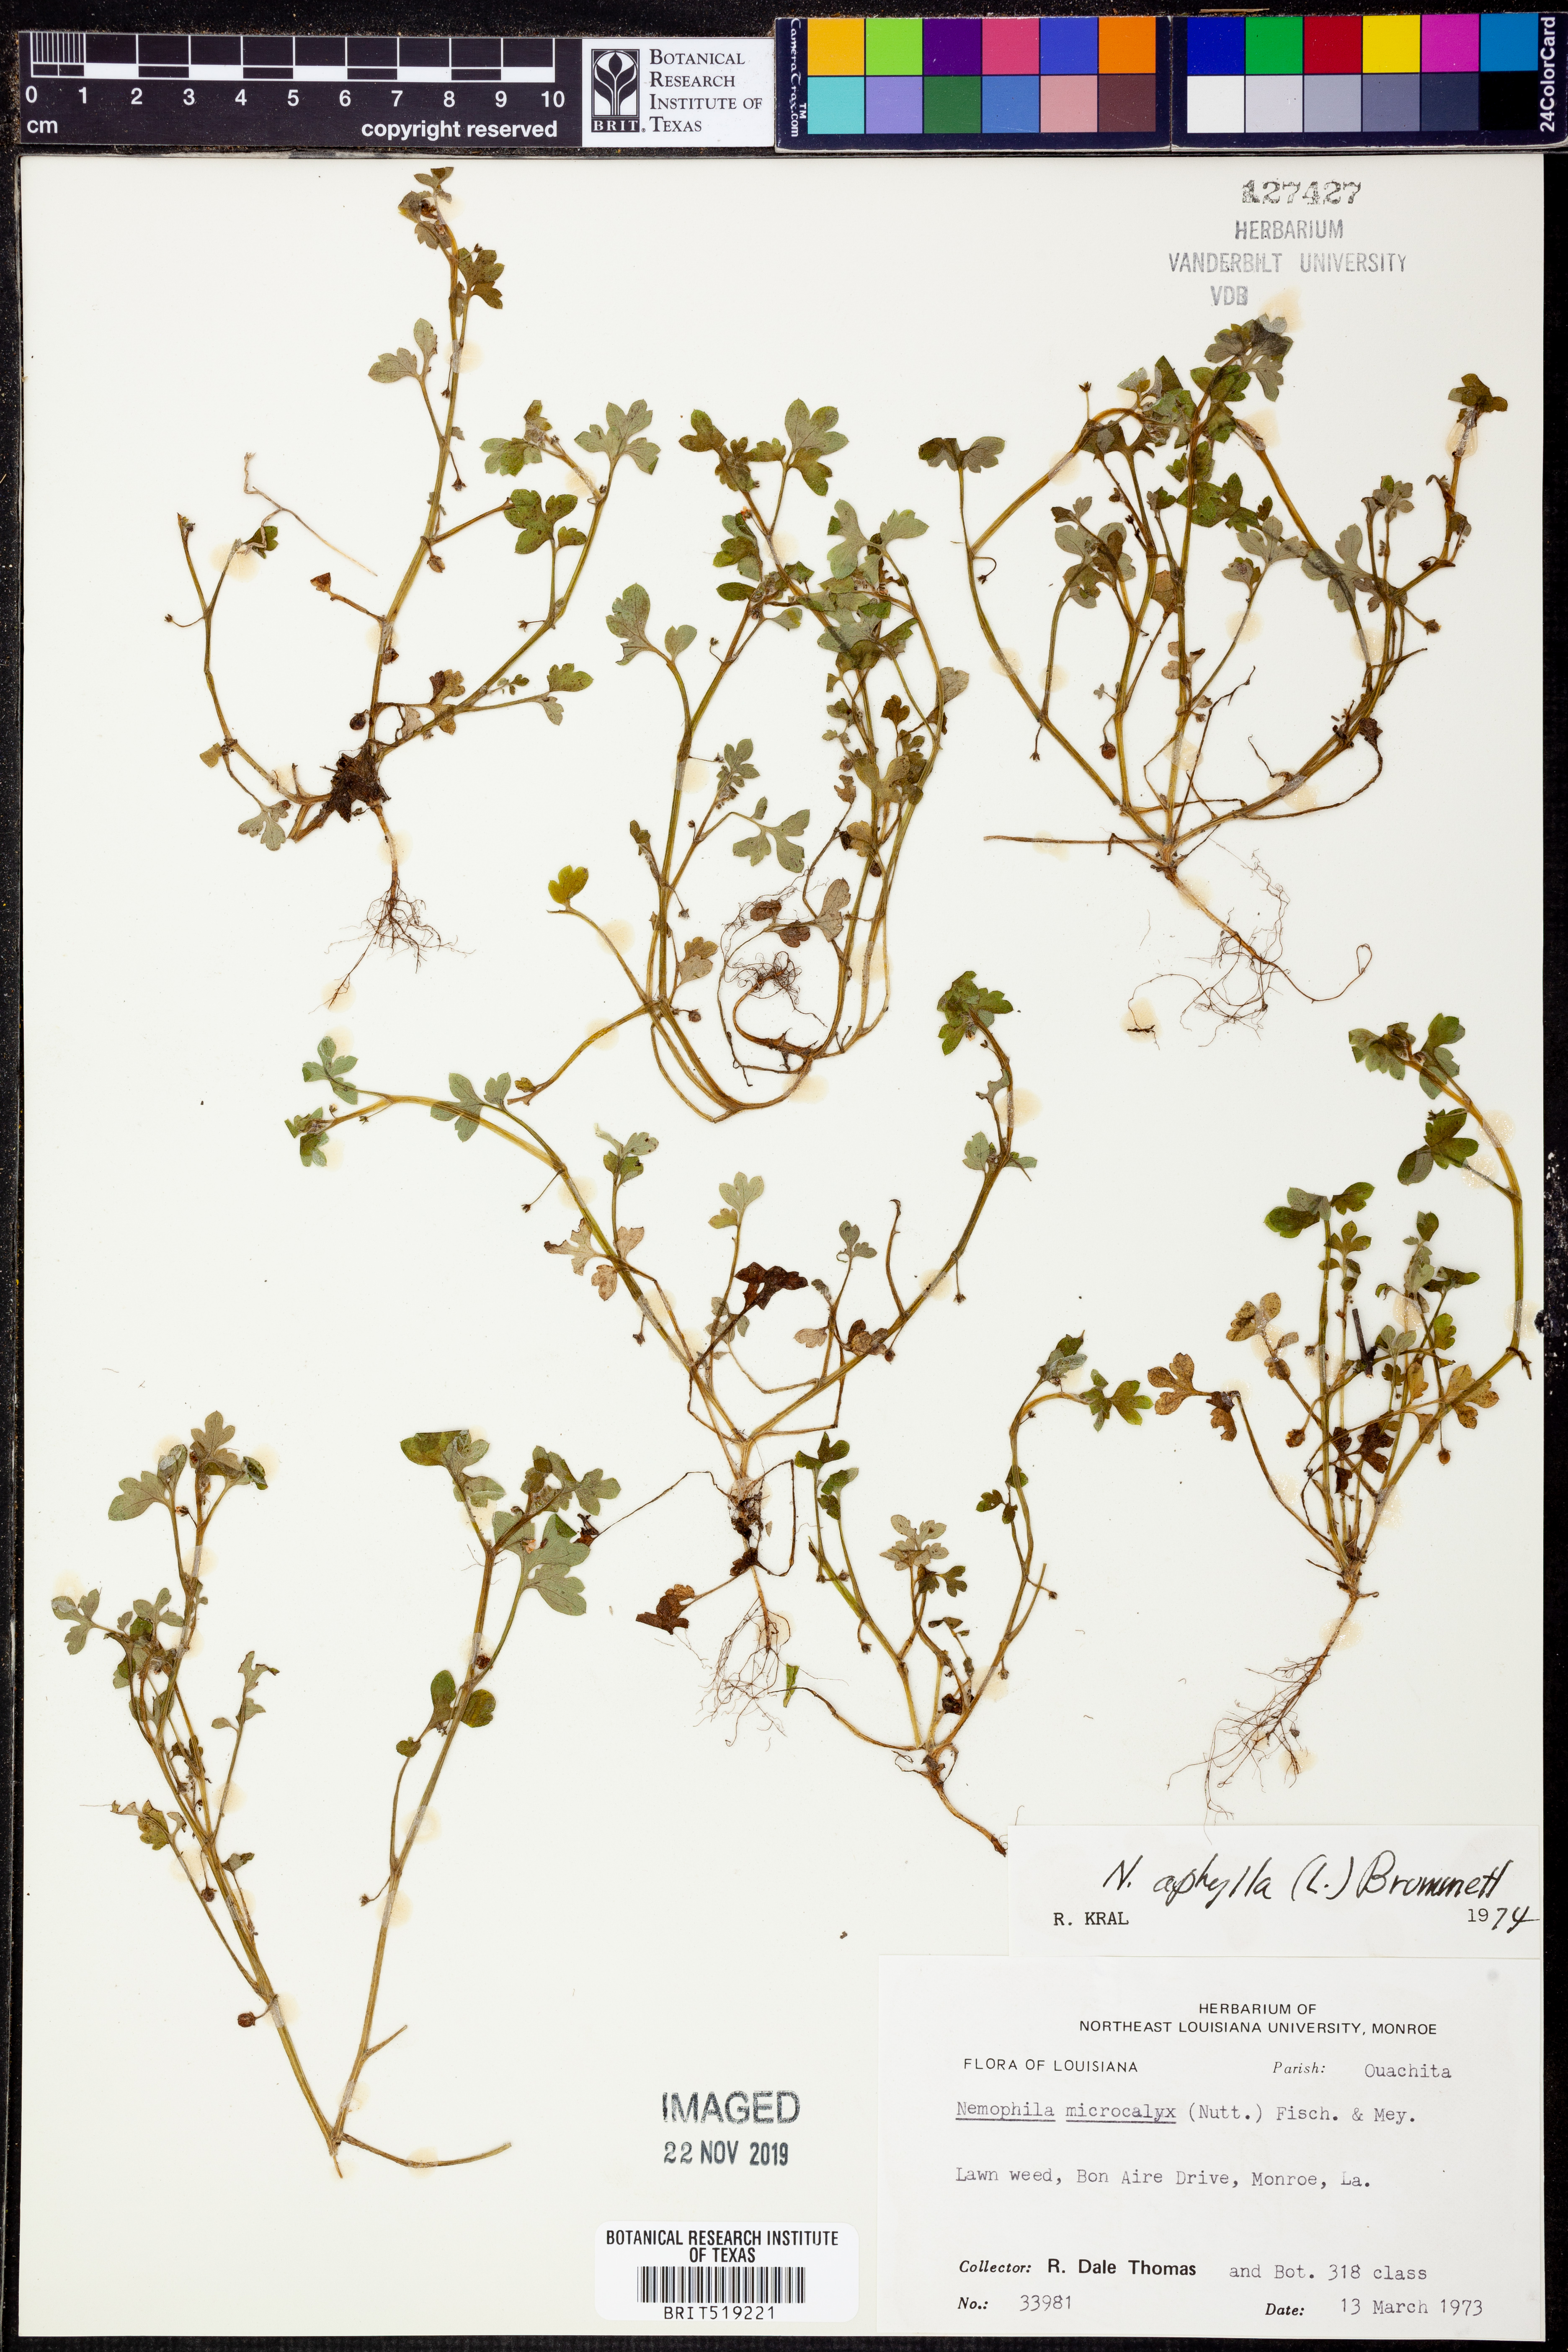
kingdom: Plantae
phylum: Tracheophyta
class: Magnoliopsida
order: Boraginales
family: Hydrophyllaceae
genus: Nemophila
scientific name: Nemophila aphylla
